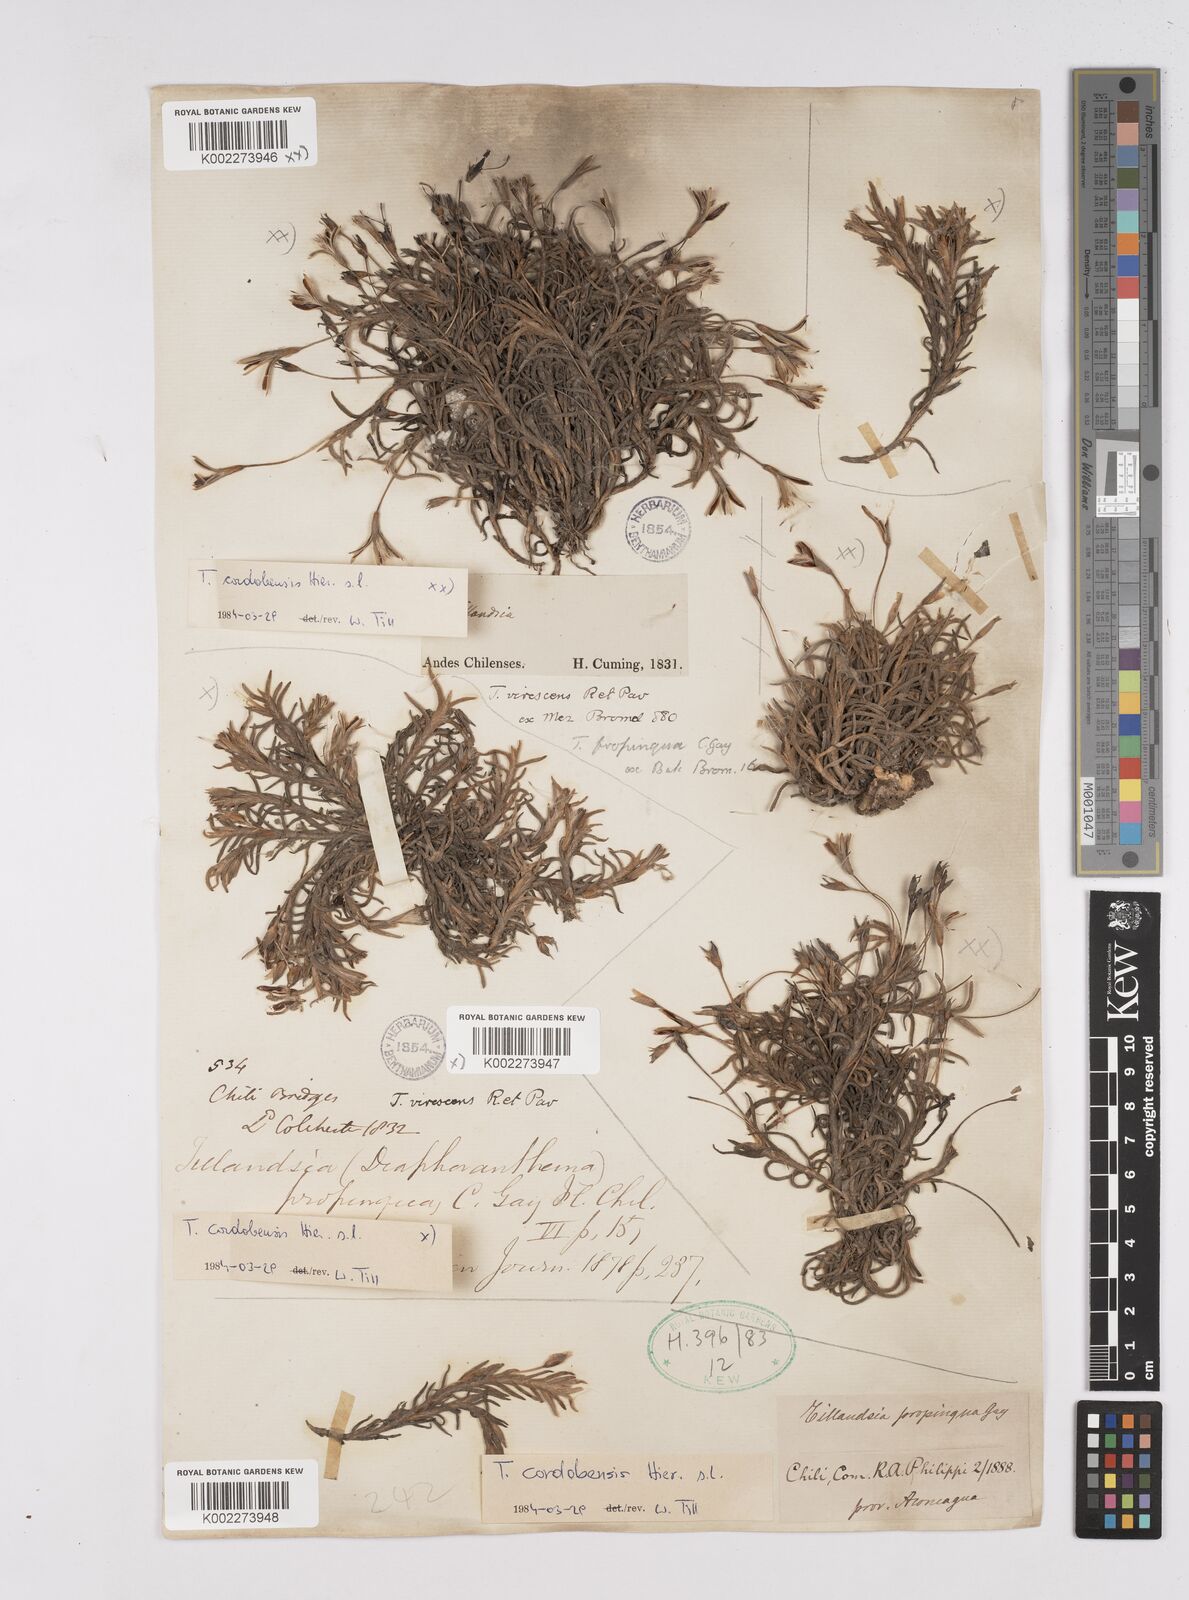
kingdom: Plantae
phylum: Tracheophyta
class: Liliopsida
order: Poales
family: Bromeliaceae
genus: Tillandsia
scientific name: Tillandsia virescens
